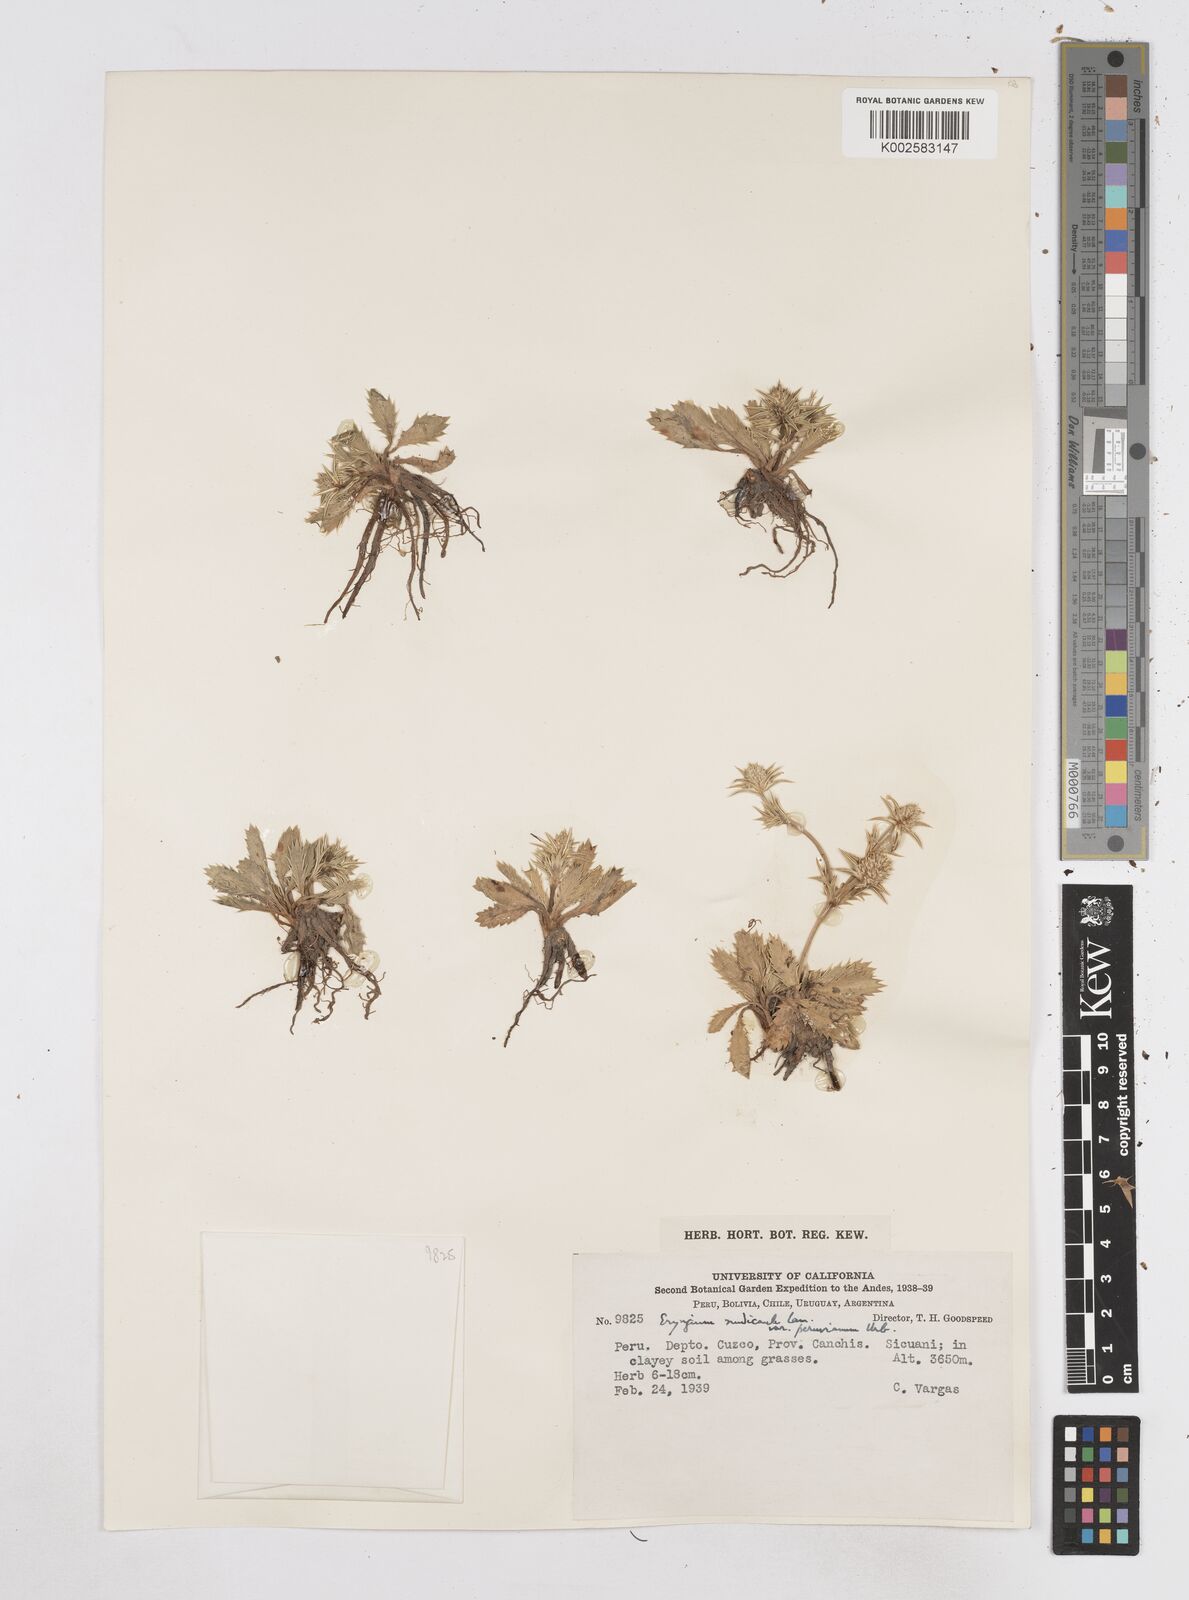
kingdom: Plantae
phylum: Tracheophyta
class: Magnoliopsida
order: Apiales
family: Apiaceae
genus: Eryngium
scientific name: Eryngium nudicaule
